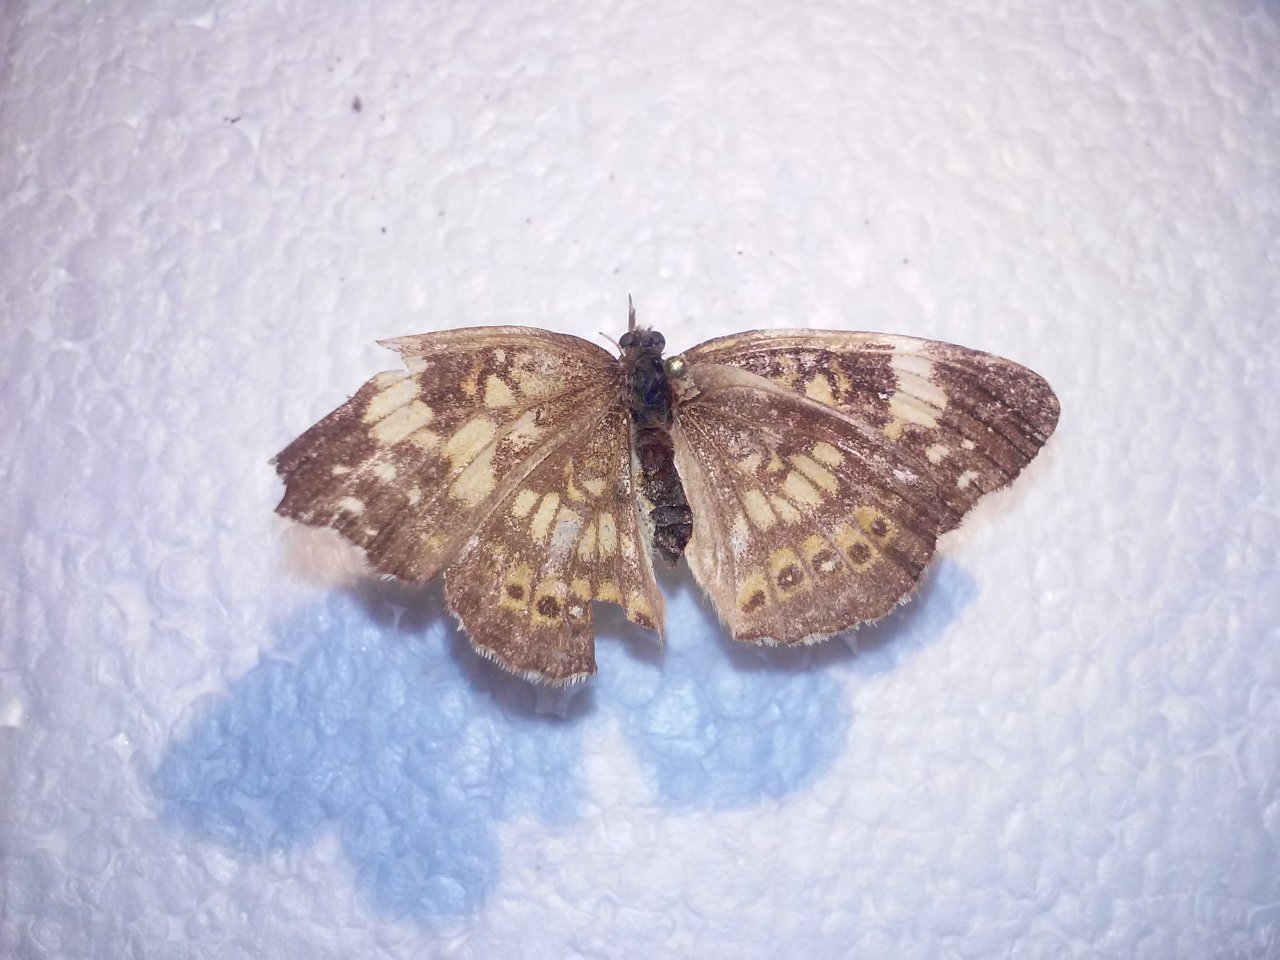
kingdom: Animalia
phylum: Arthropoda
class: Insecta
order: Lepidoptera
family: Nymphalidae
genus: Chlosyne
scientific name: Chlosyne nycteis
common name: Silvery Checkerspot
